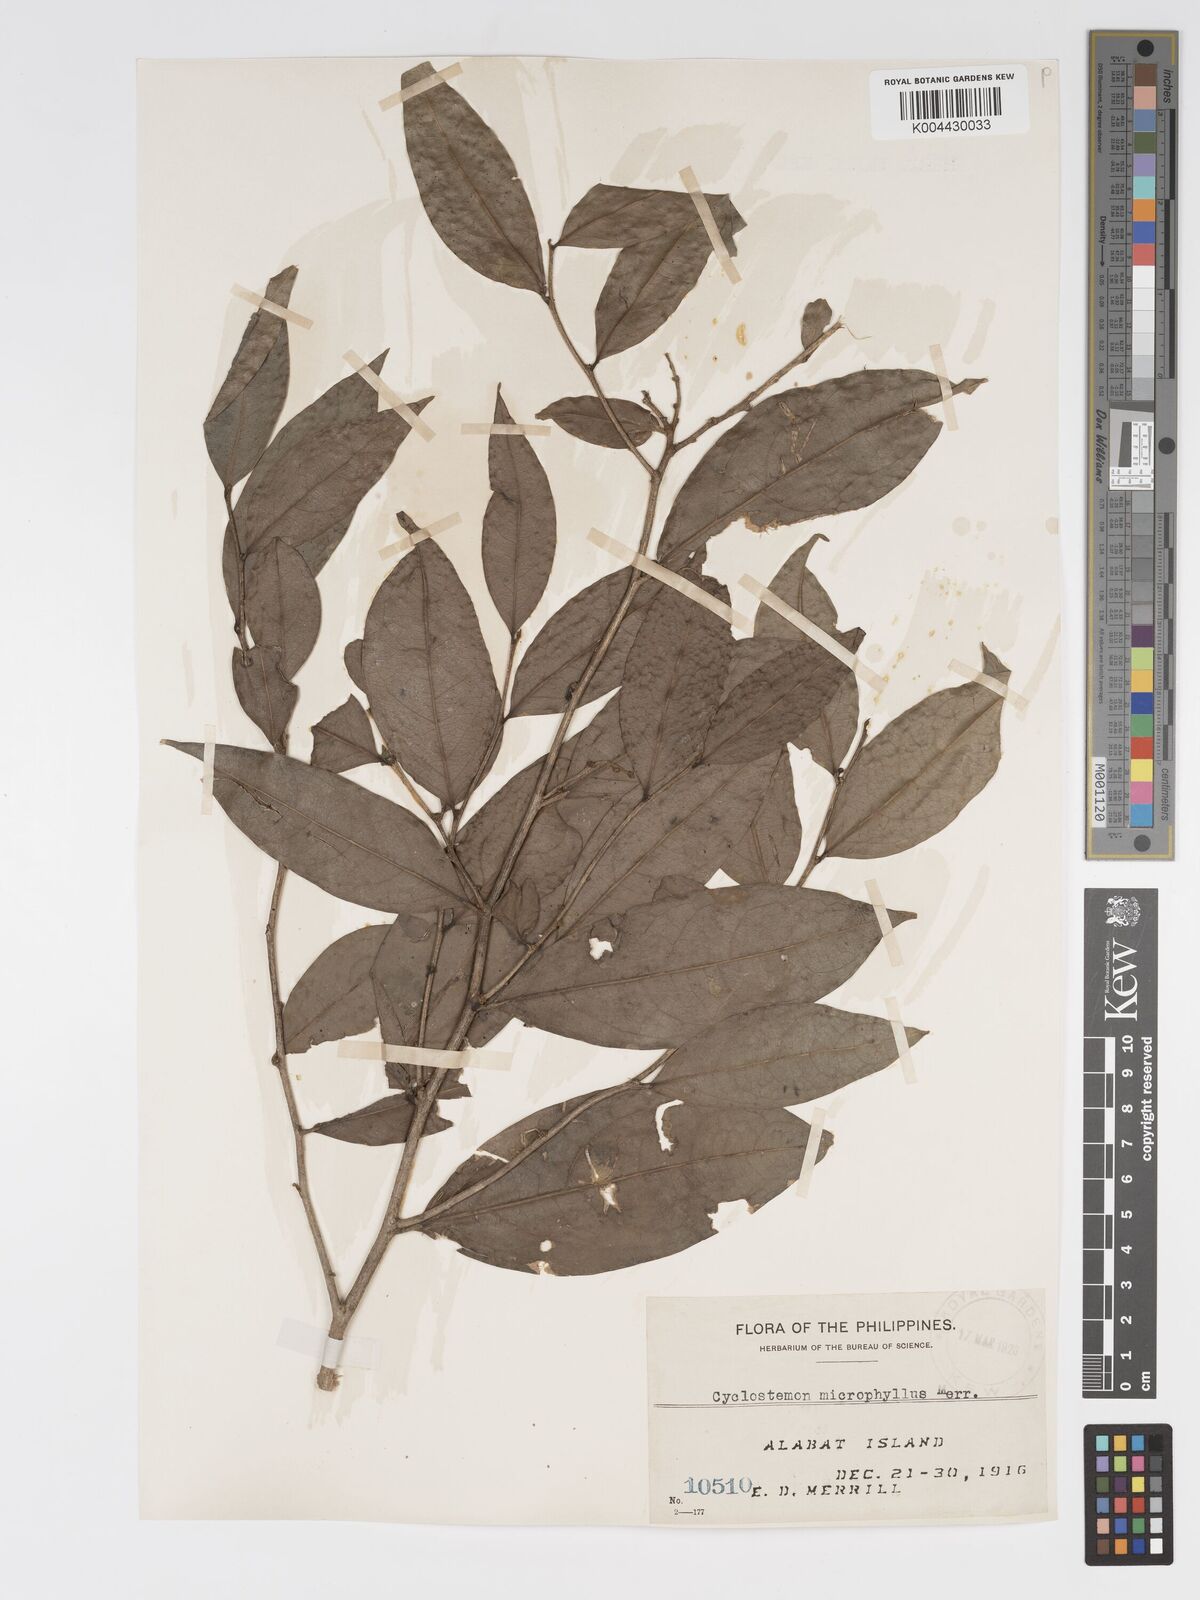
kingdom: Plantae
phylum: Tracheophyta
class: Magnoliopsida
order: Malpighiales
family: Putranjivaceae
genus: Drypetes
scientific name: Drypetes rhakodiskos
